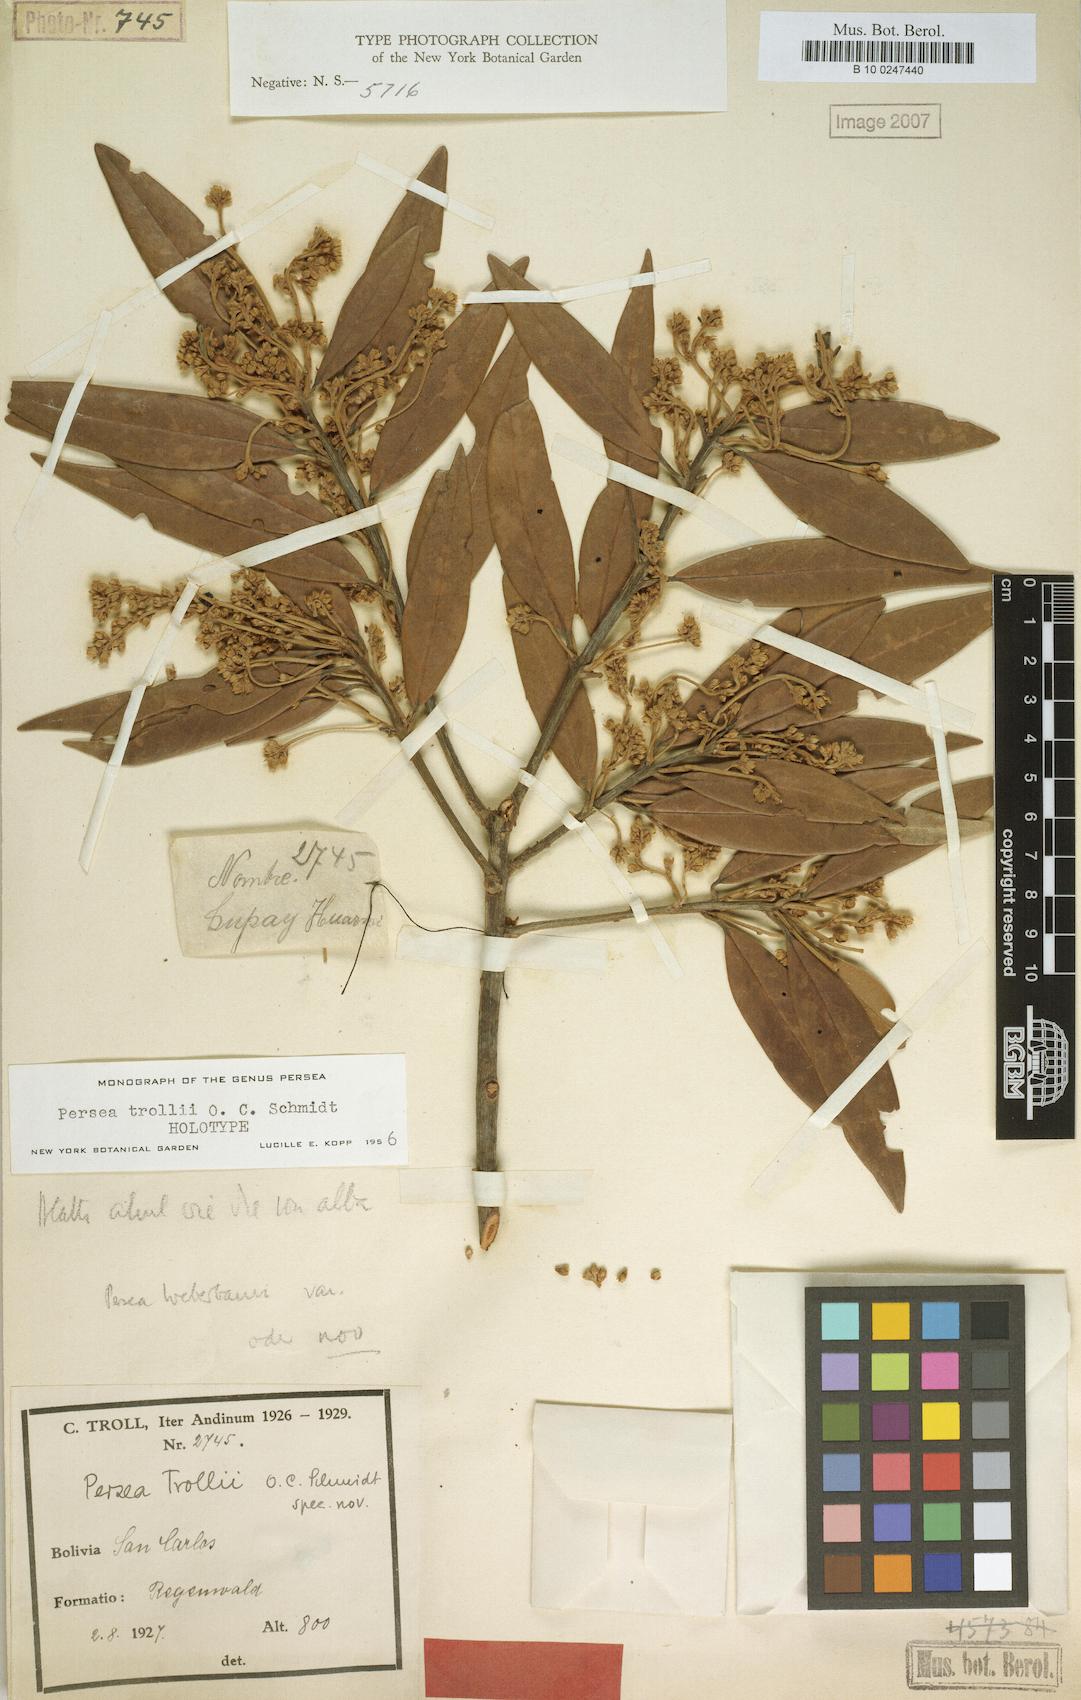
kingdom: Plantae
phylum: Tracheophyta
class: Magnoliopsida
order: Laurales
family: Lauraceae
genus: Persea
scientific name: Persea trollii
